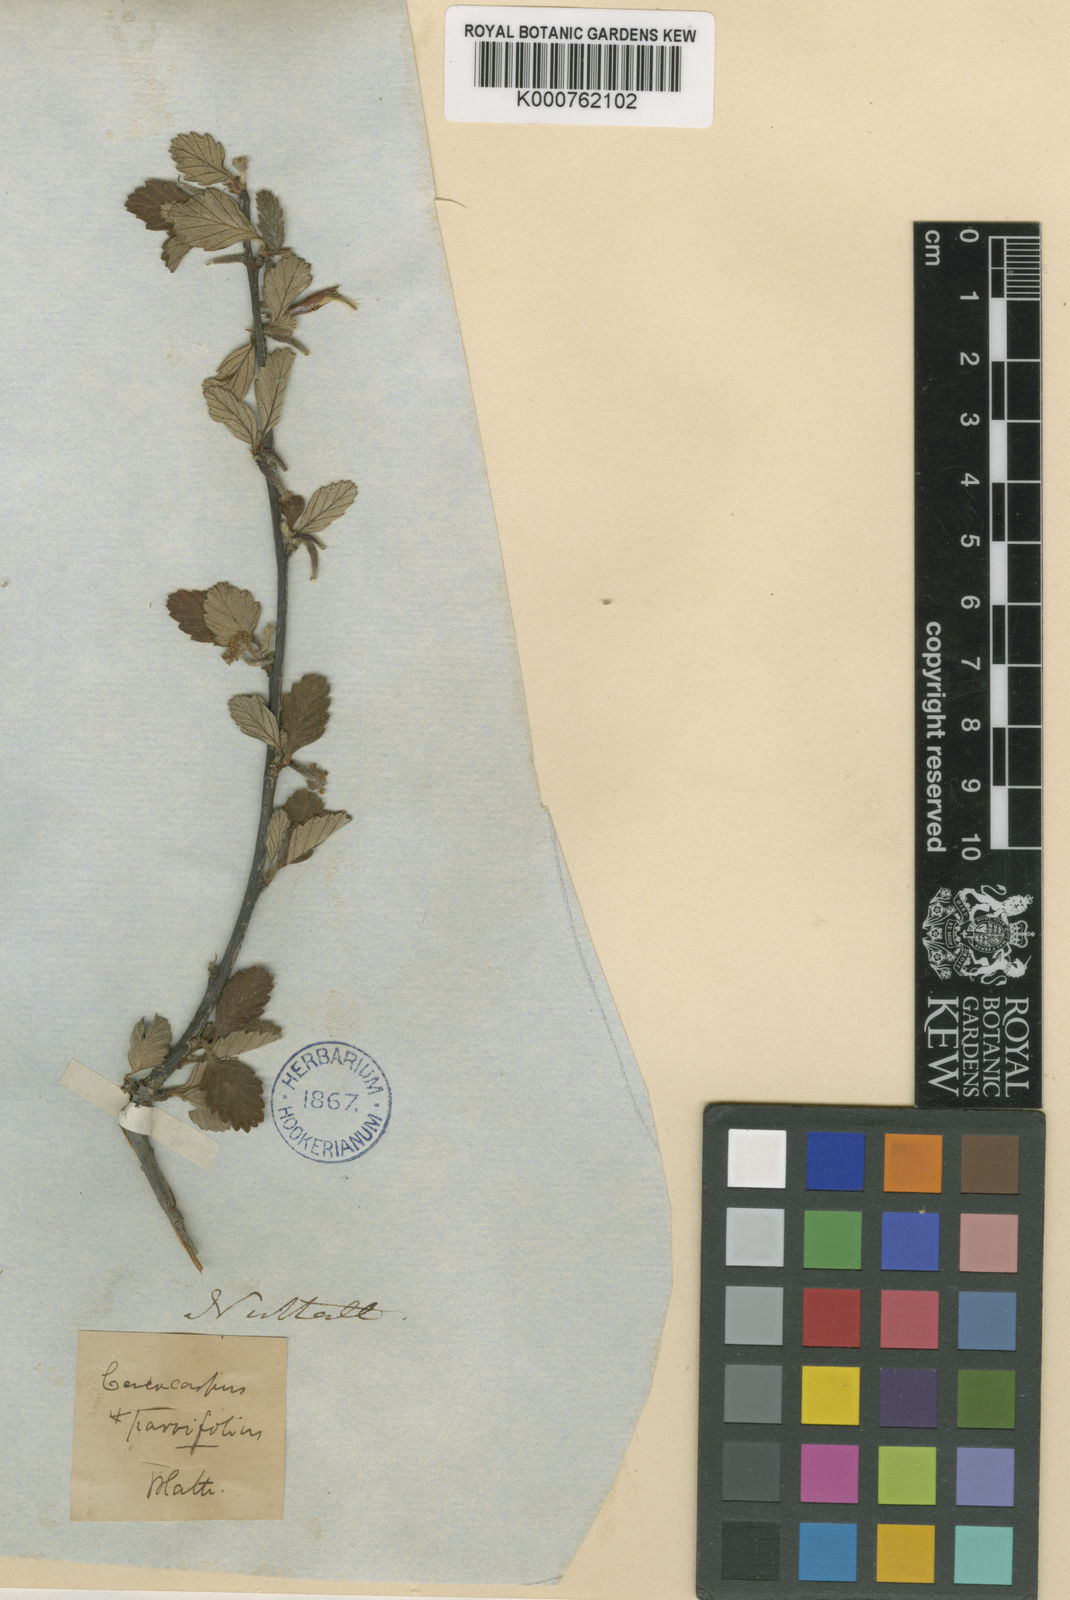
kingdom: Plantae
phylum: Tracheophyta
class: Magnoliopsida
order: Rosales
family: Rosaceae
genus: Cercocarpus
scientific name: Cercocarpus montanus
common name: Alder-leaf cercocarpus
